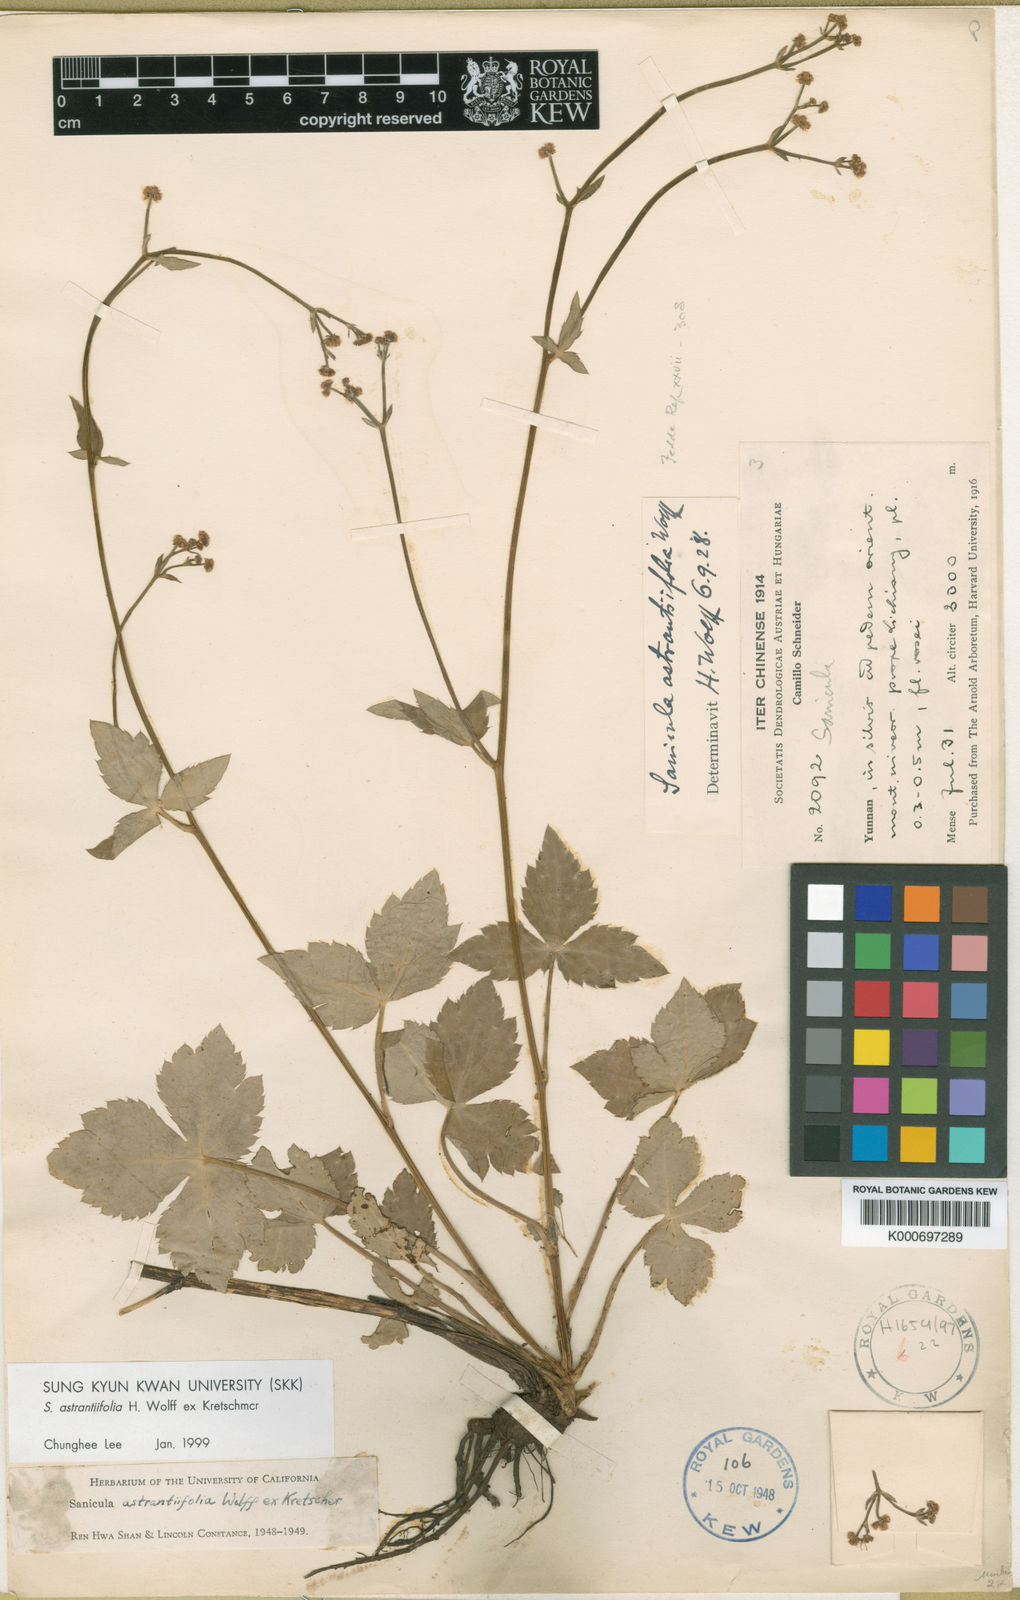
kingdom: Plantae
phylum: Tracheophyta
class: Magnoliopsida
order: Apiales
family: Apiaceae
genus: Sanicula
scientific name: Sanicula astrantiifolia
